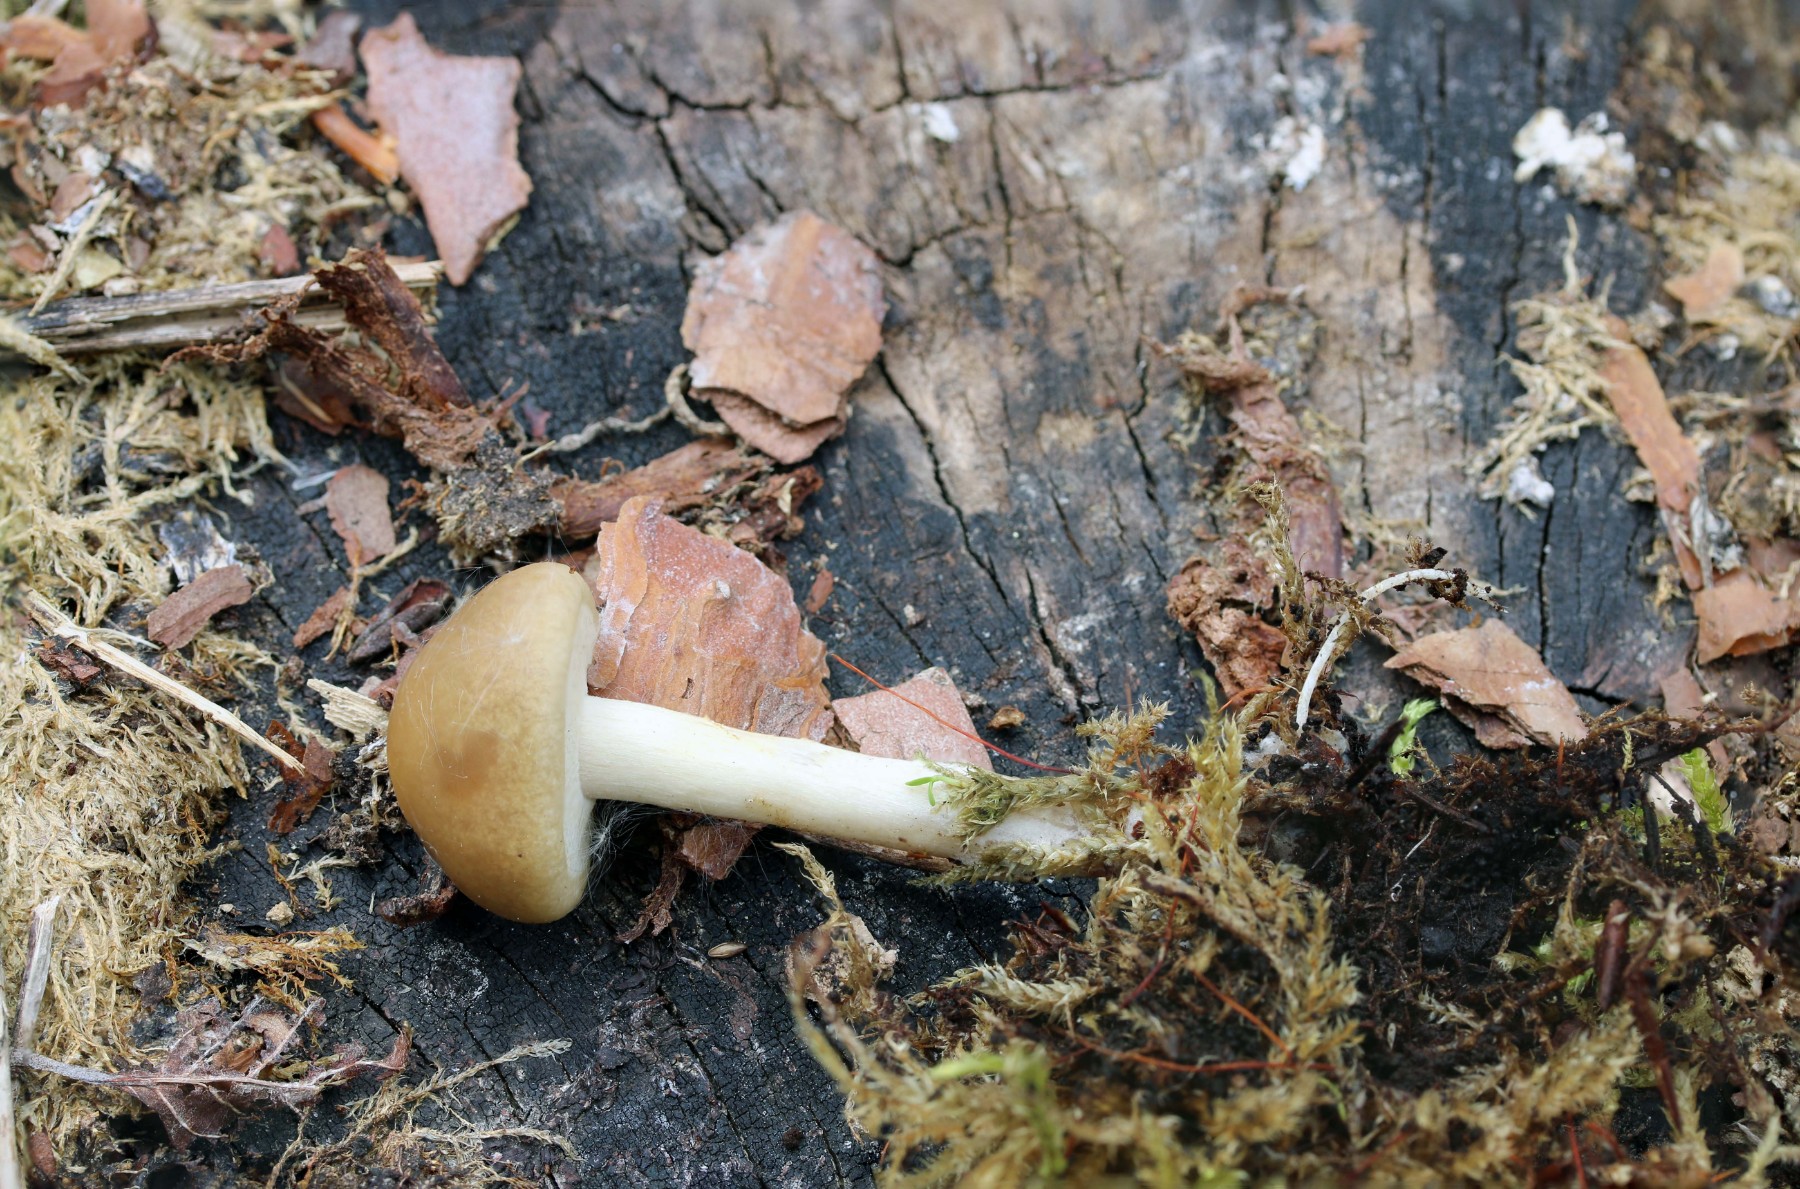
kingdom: Fungi
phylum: Basidiomycota
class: Agaricomycetes
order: Agaricales
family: Strophariaceae
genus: Agrocybe
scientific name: Agrocybe praecox
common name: tidlig agerhat
